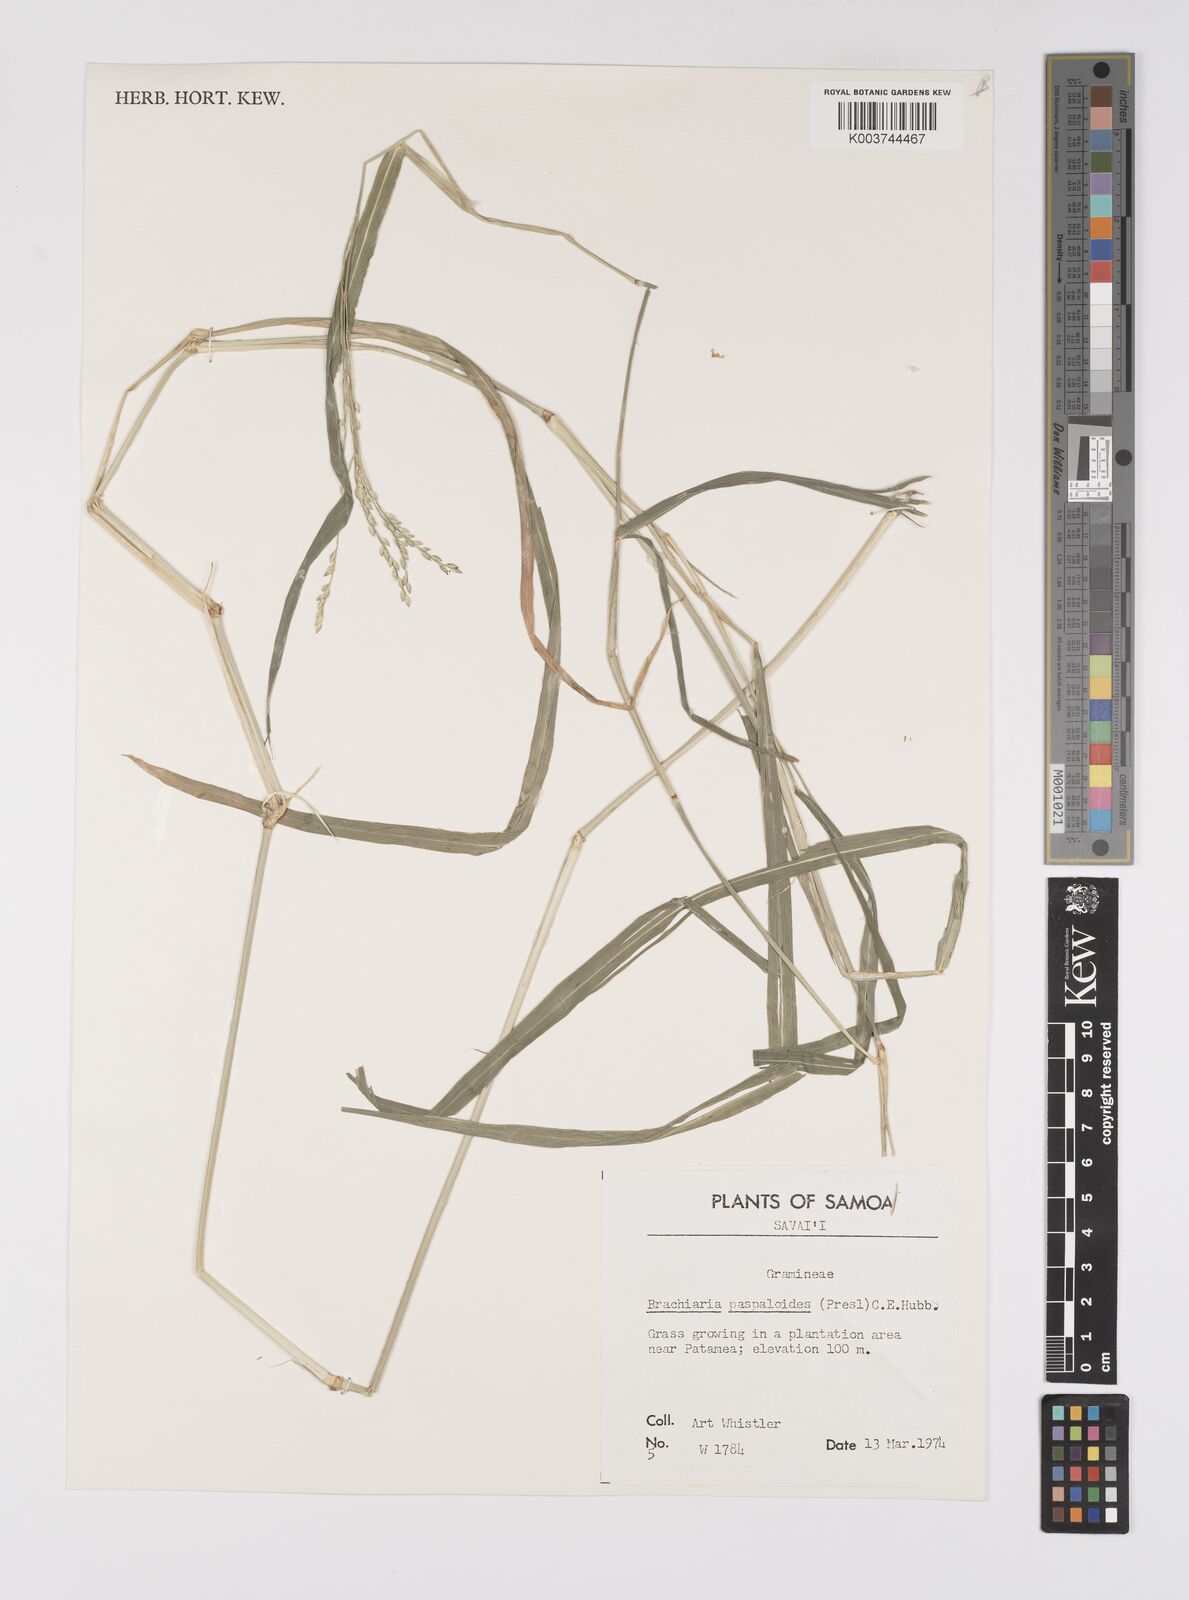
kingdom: Plantae
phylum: Tracheophyta
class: Liliopsida
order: Poales
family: Poaceae
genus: Urochloa
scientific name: Urochloa glumaris
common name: Thurston grass
